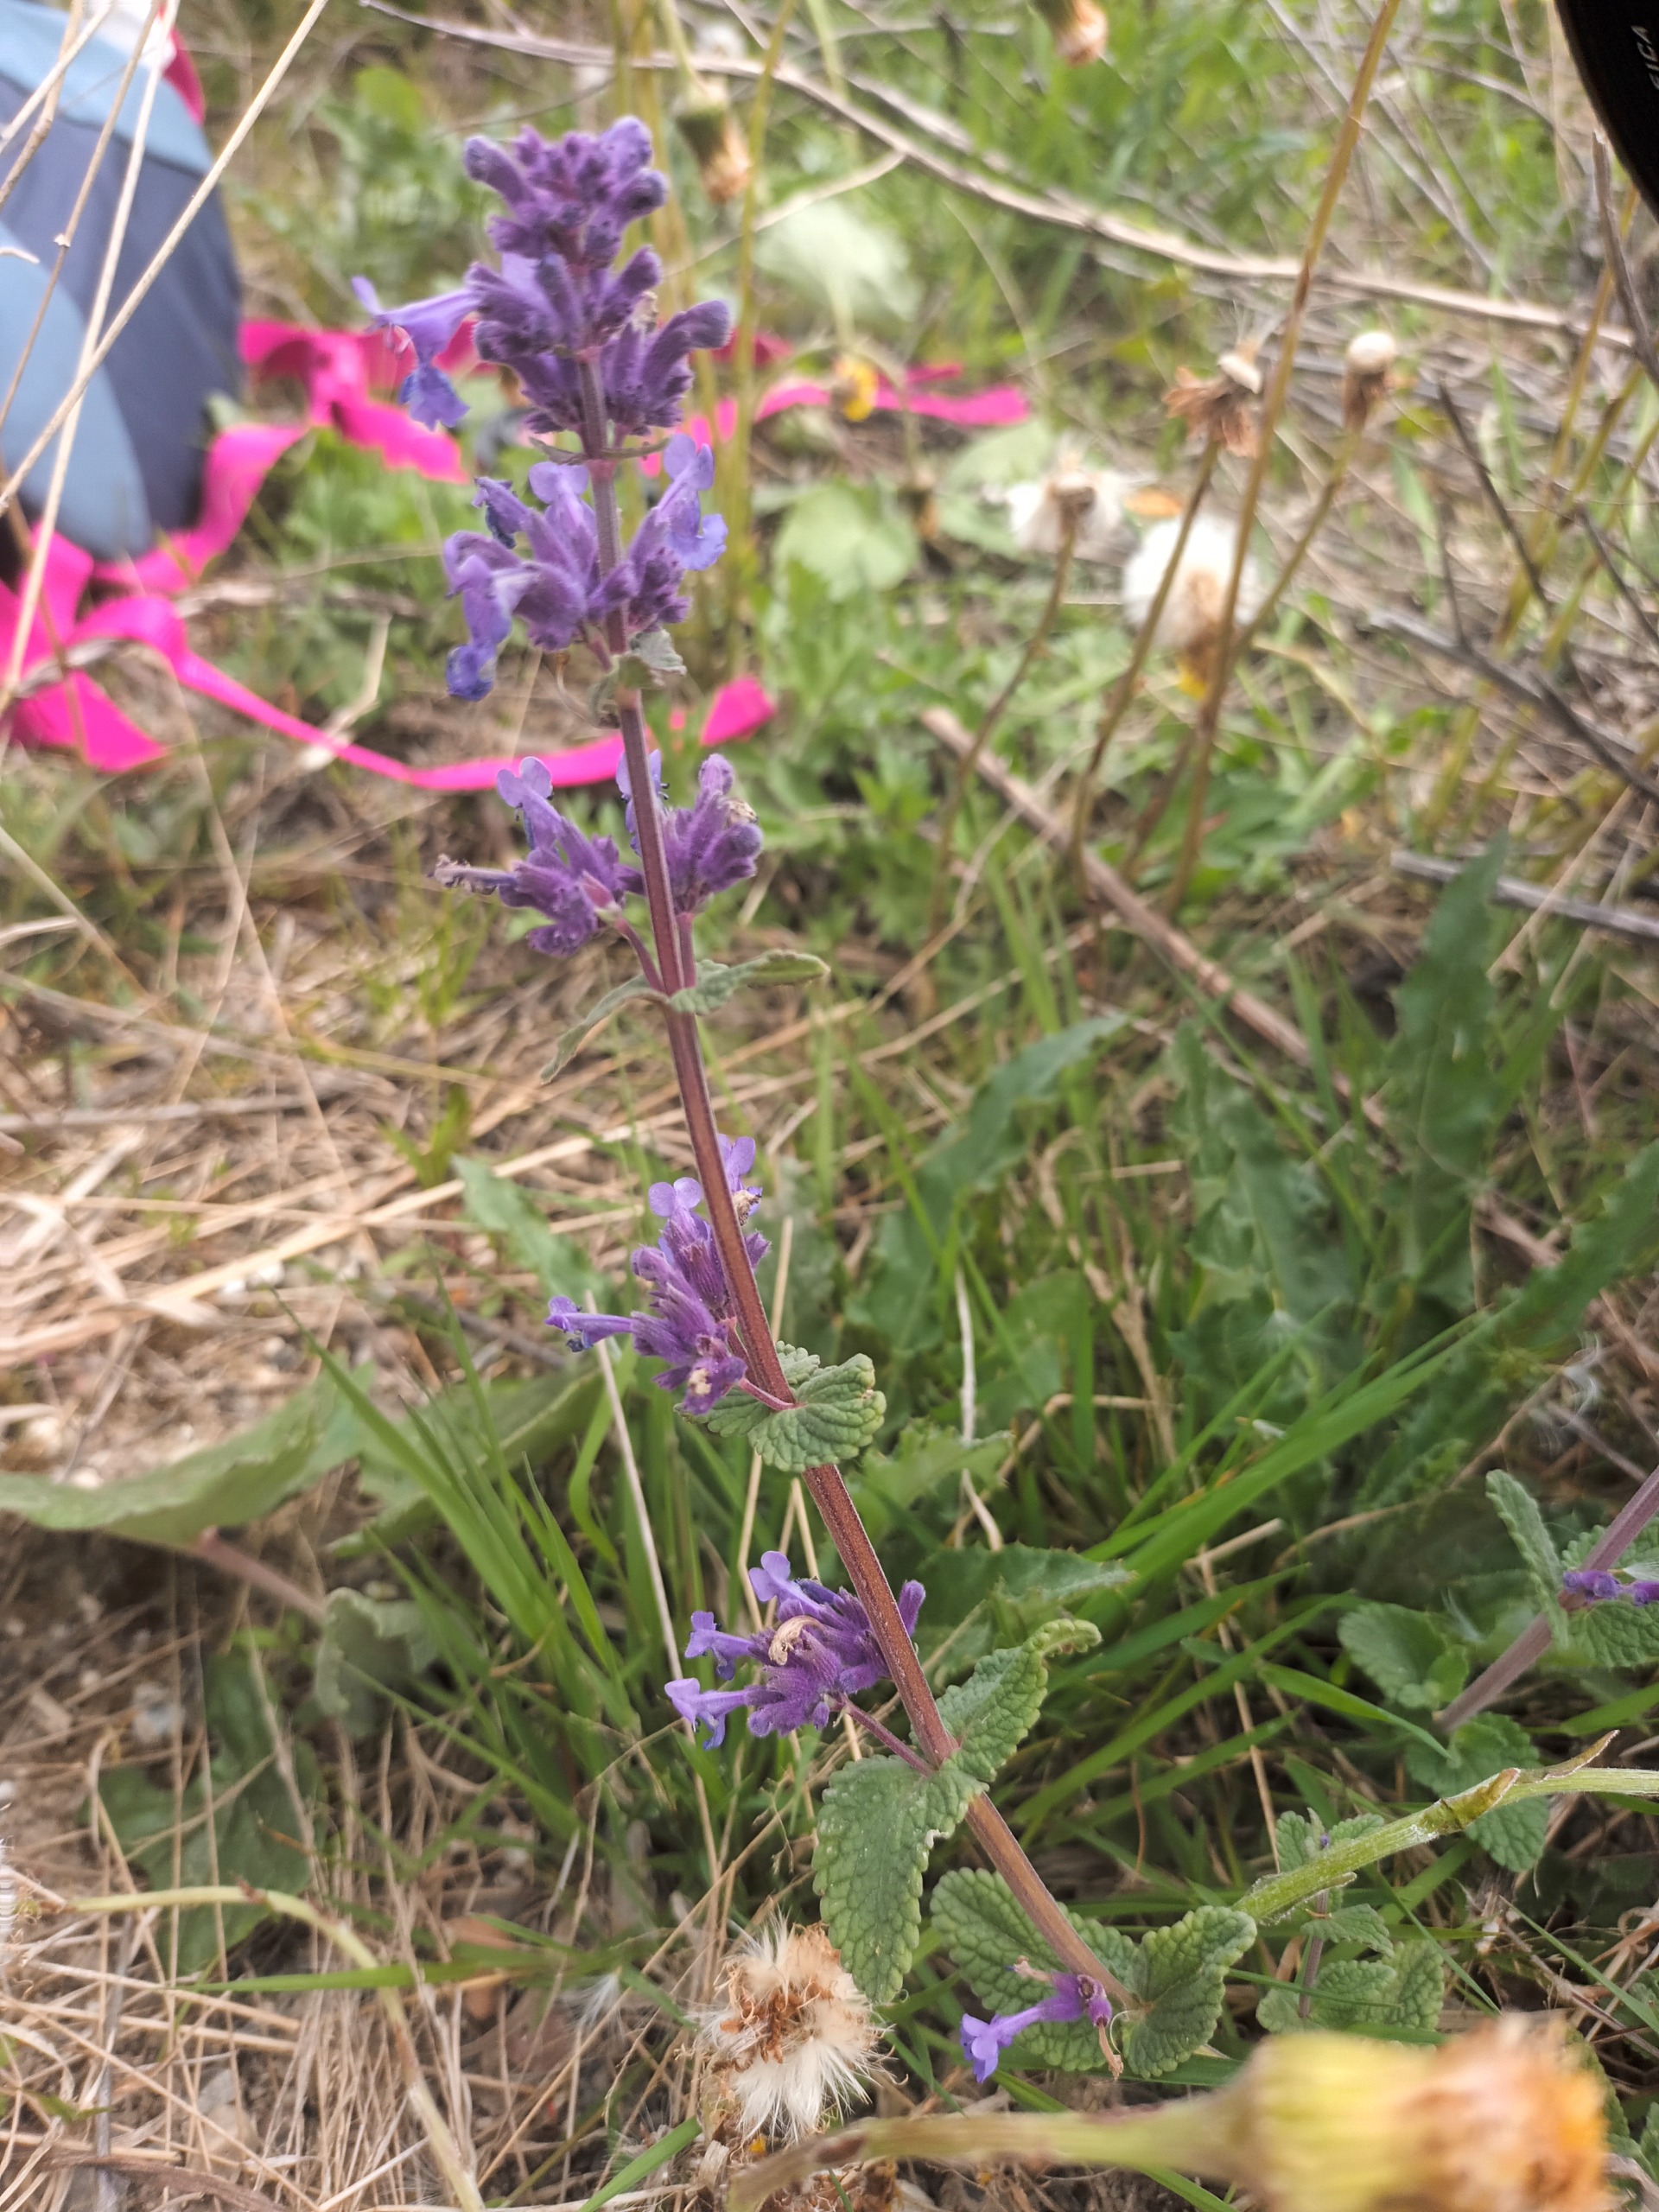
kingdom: Plantae
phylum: Tracheophyta
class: Magnoliopsida
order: Lamiales
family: Lamiaceae
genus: Nepeta
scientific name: Nepeta racemosa
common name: Ægte blåkant
